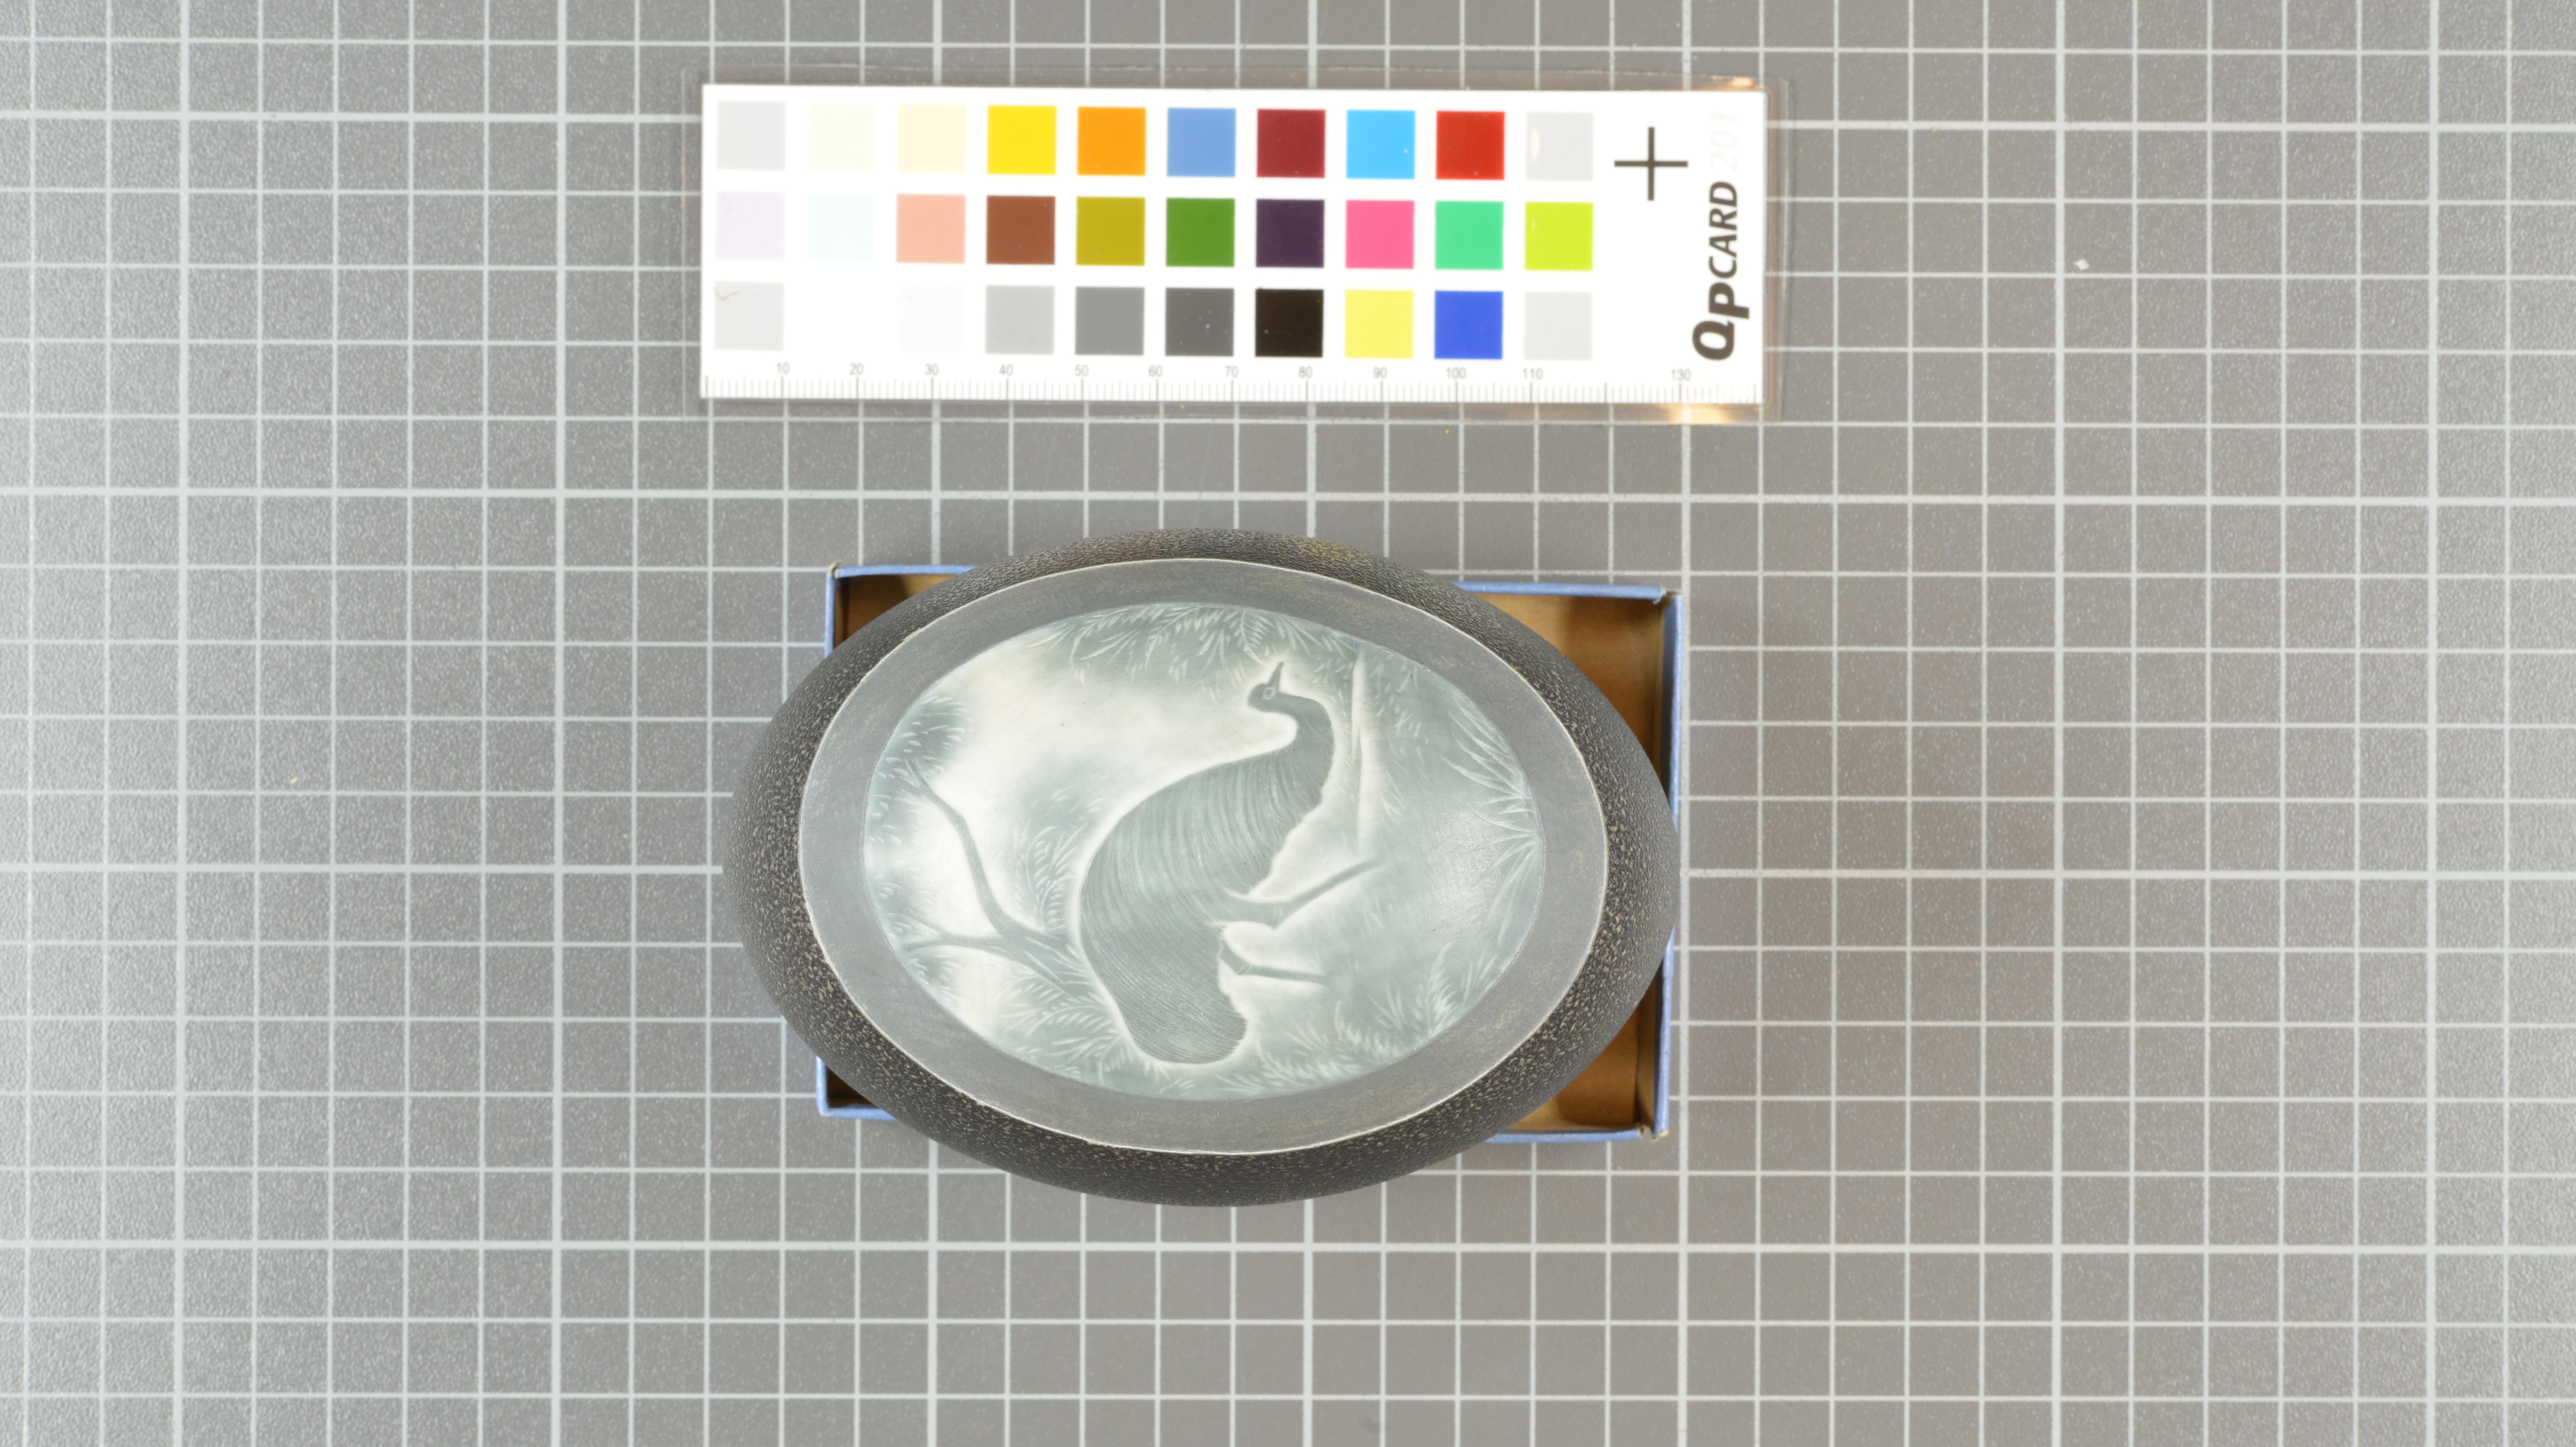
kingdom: Animalia
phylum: Chordata
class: Aves
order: Casuariiformes
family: Dromaiidae
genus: Dromaius
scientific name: Dromaius novaehollandiae
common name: Emu
